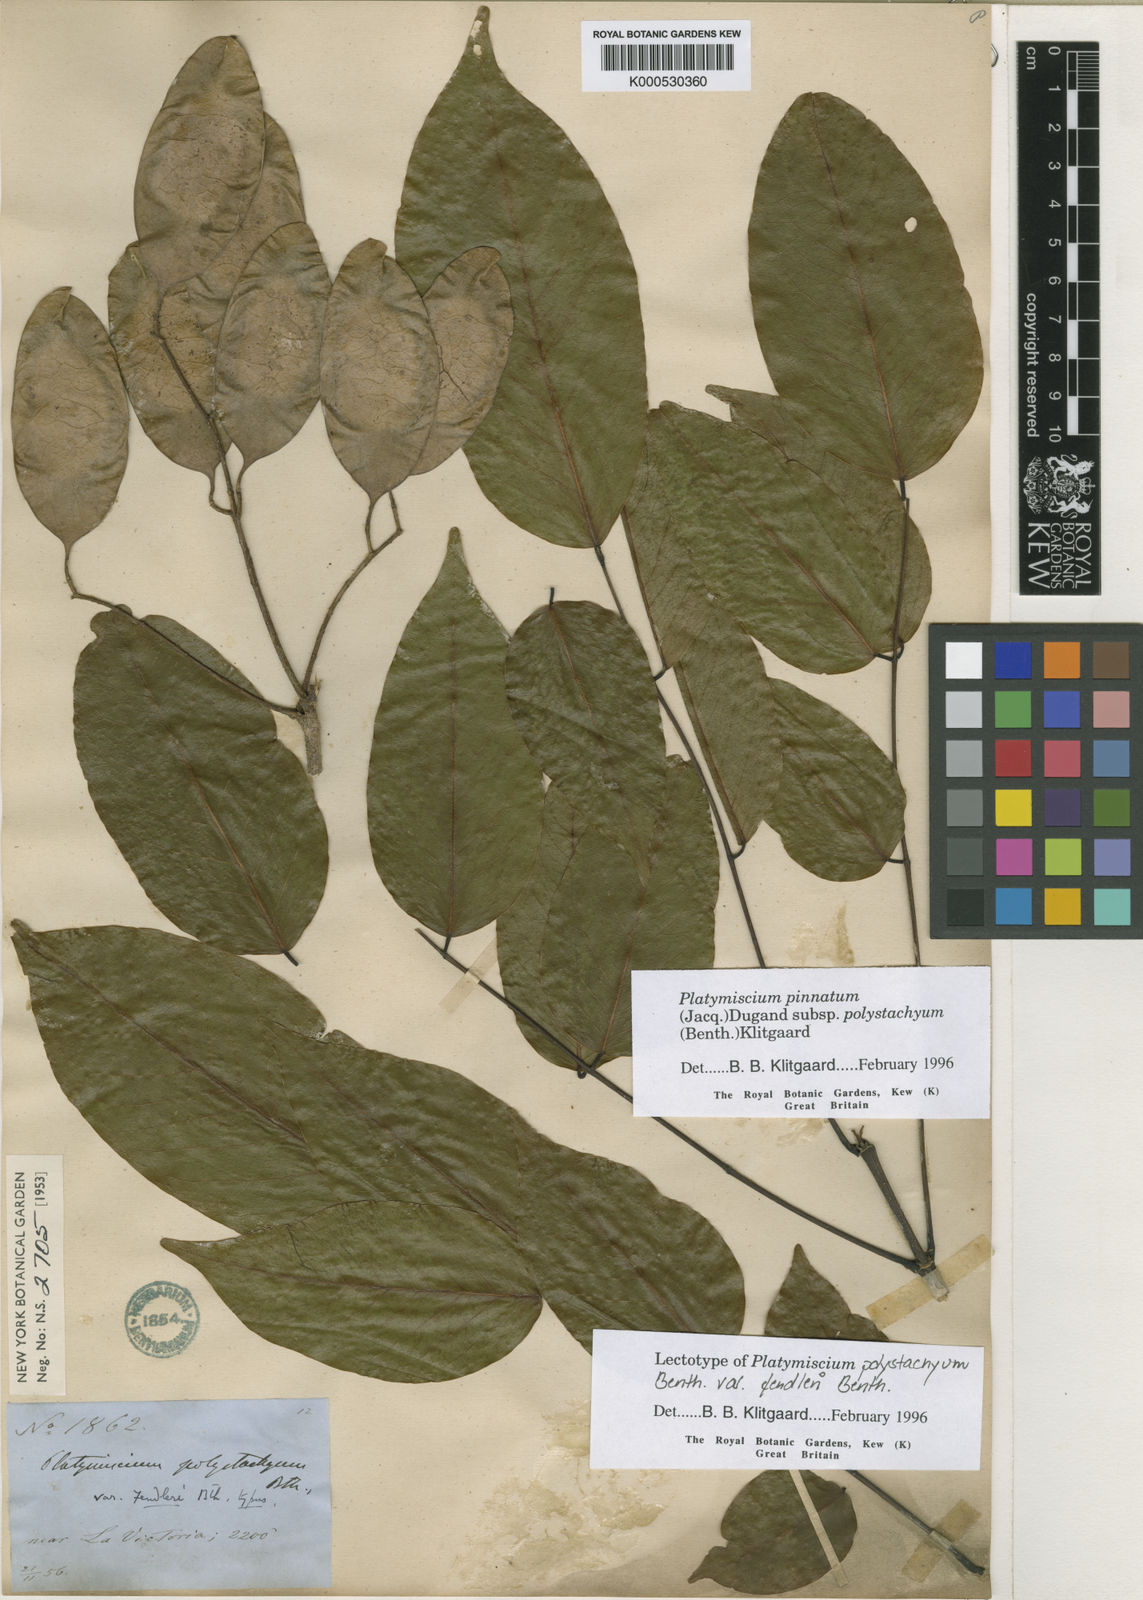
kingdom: Plantae
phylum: Tracheophyta
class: Magnoliopsida
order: Fabales
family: Fabaceae
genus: Platymiscium
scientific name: Platymiscium pinnatum
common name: Panama redwood
